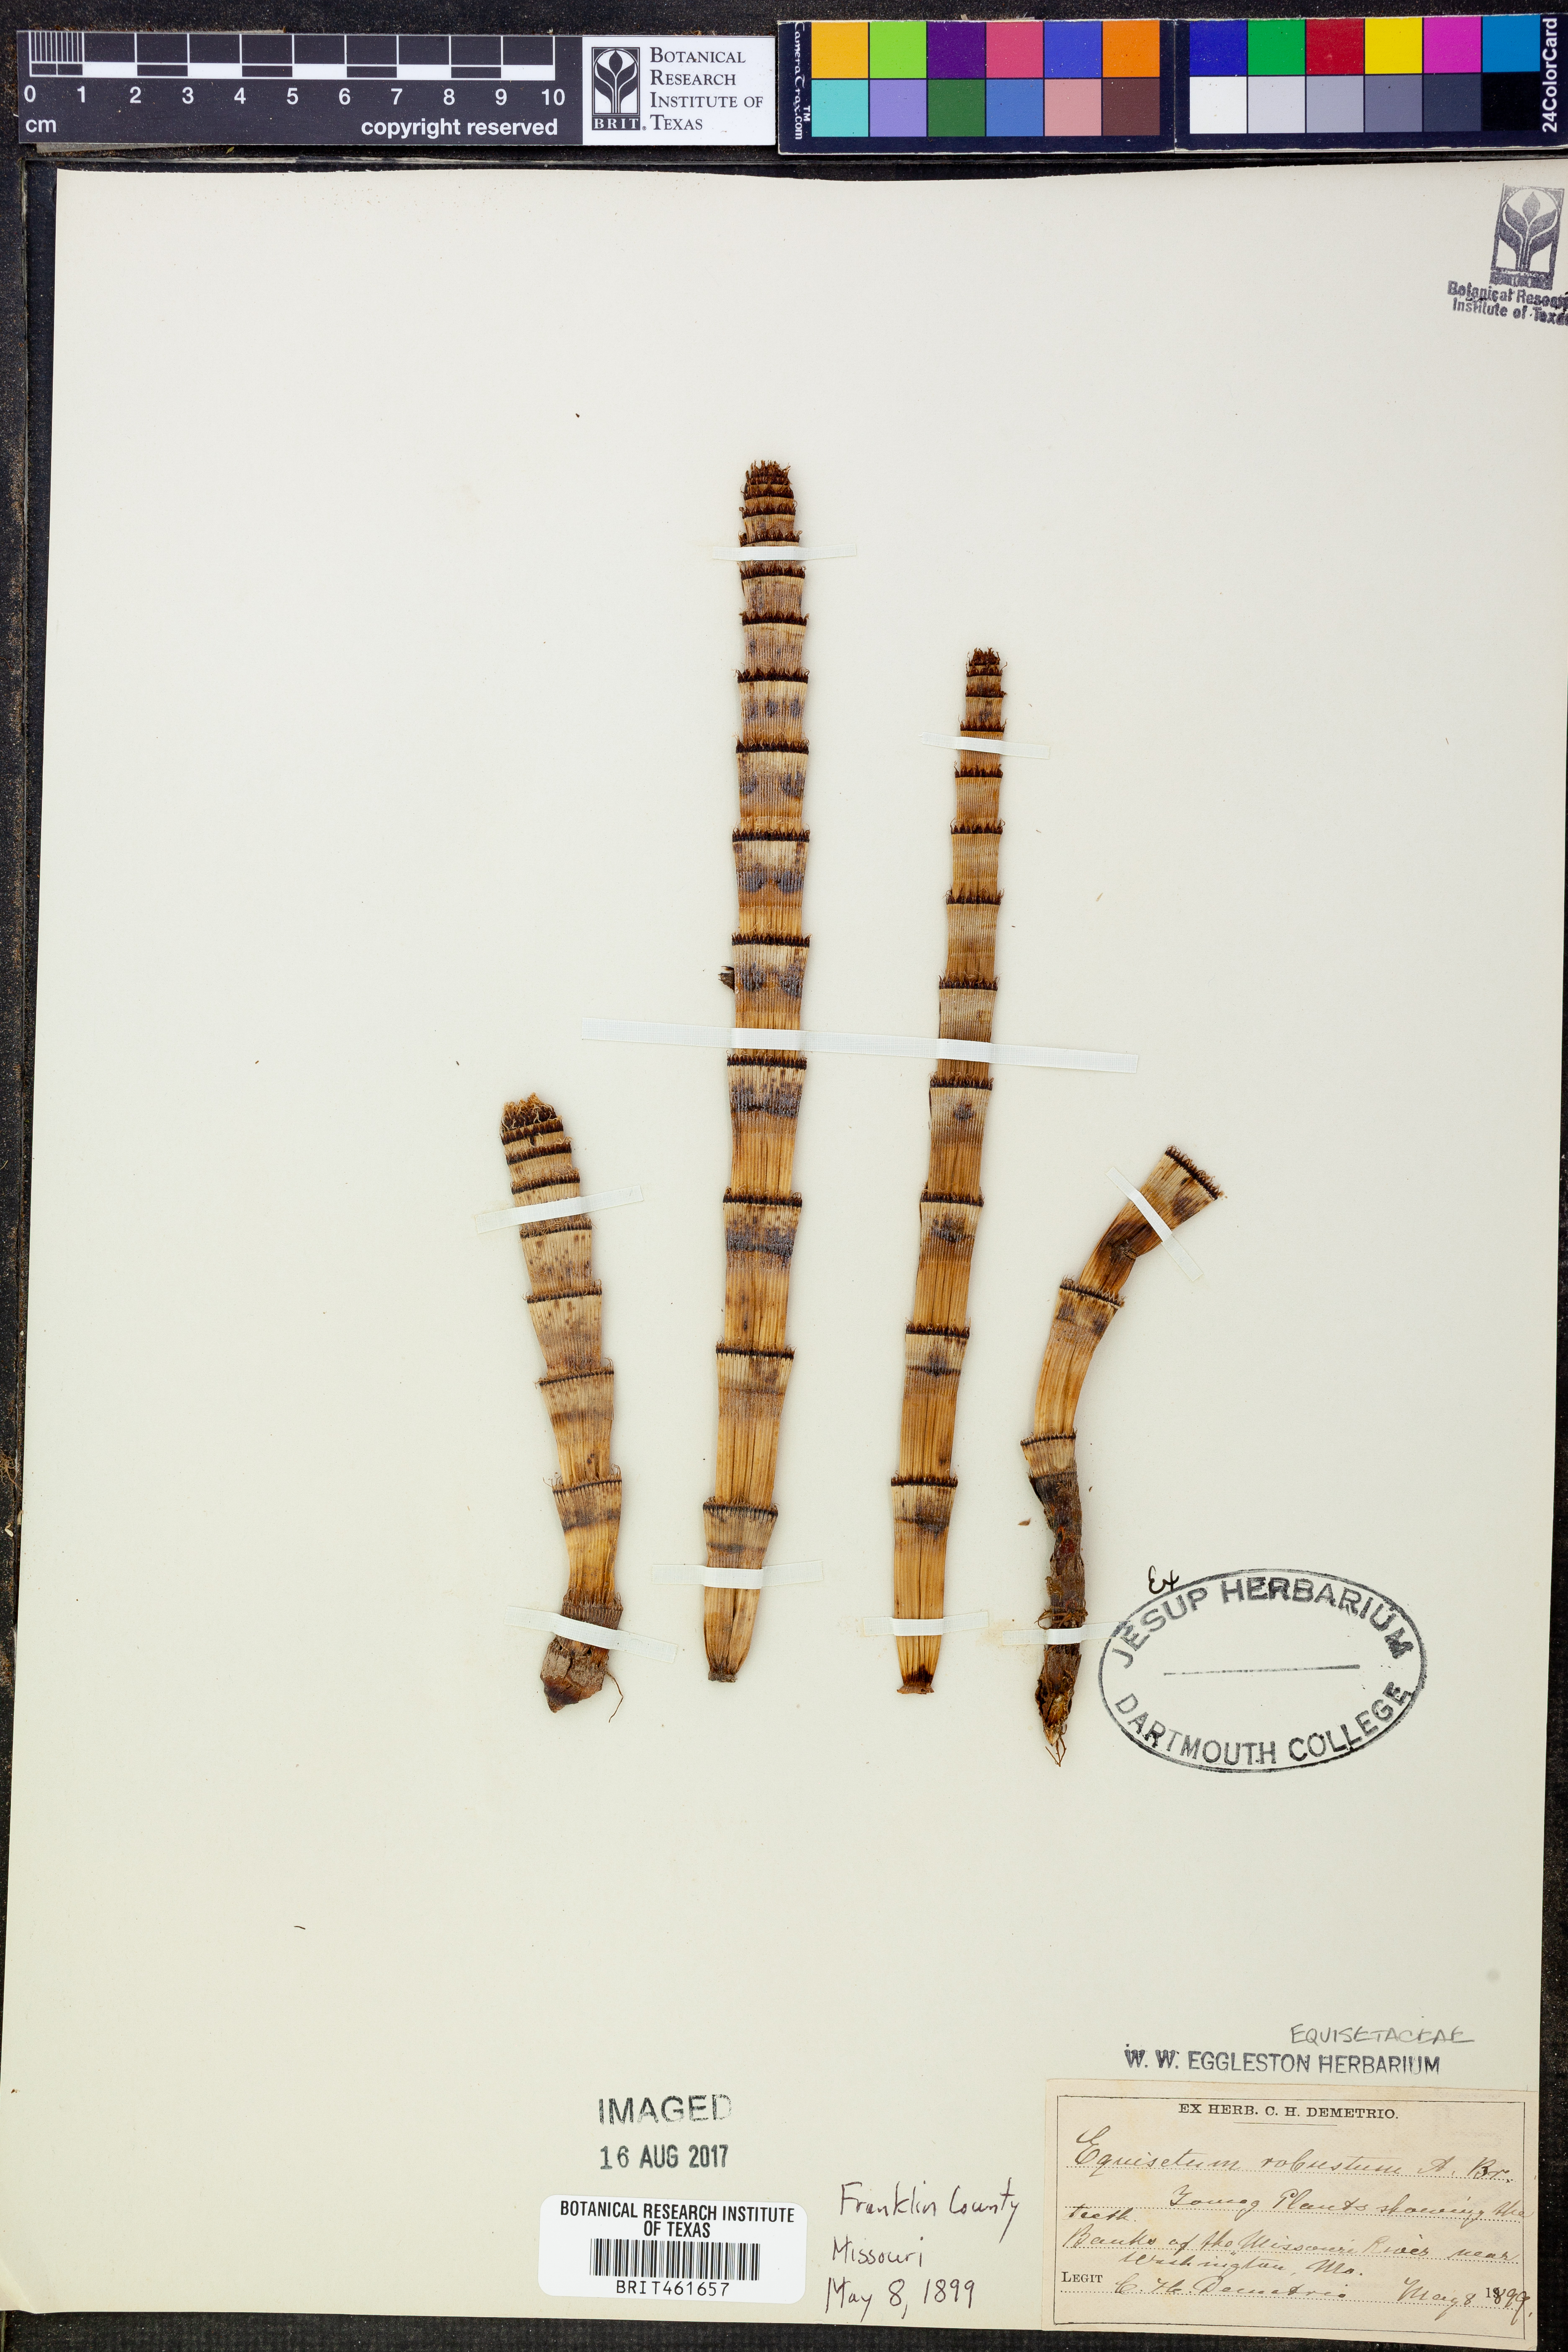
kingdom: Plantae
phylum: Tracheophyta
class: Polypodiopsida
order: Equisetales
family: Equisetaceae
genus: Equisetum
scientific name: Equisetum praealtum
